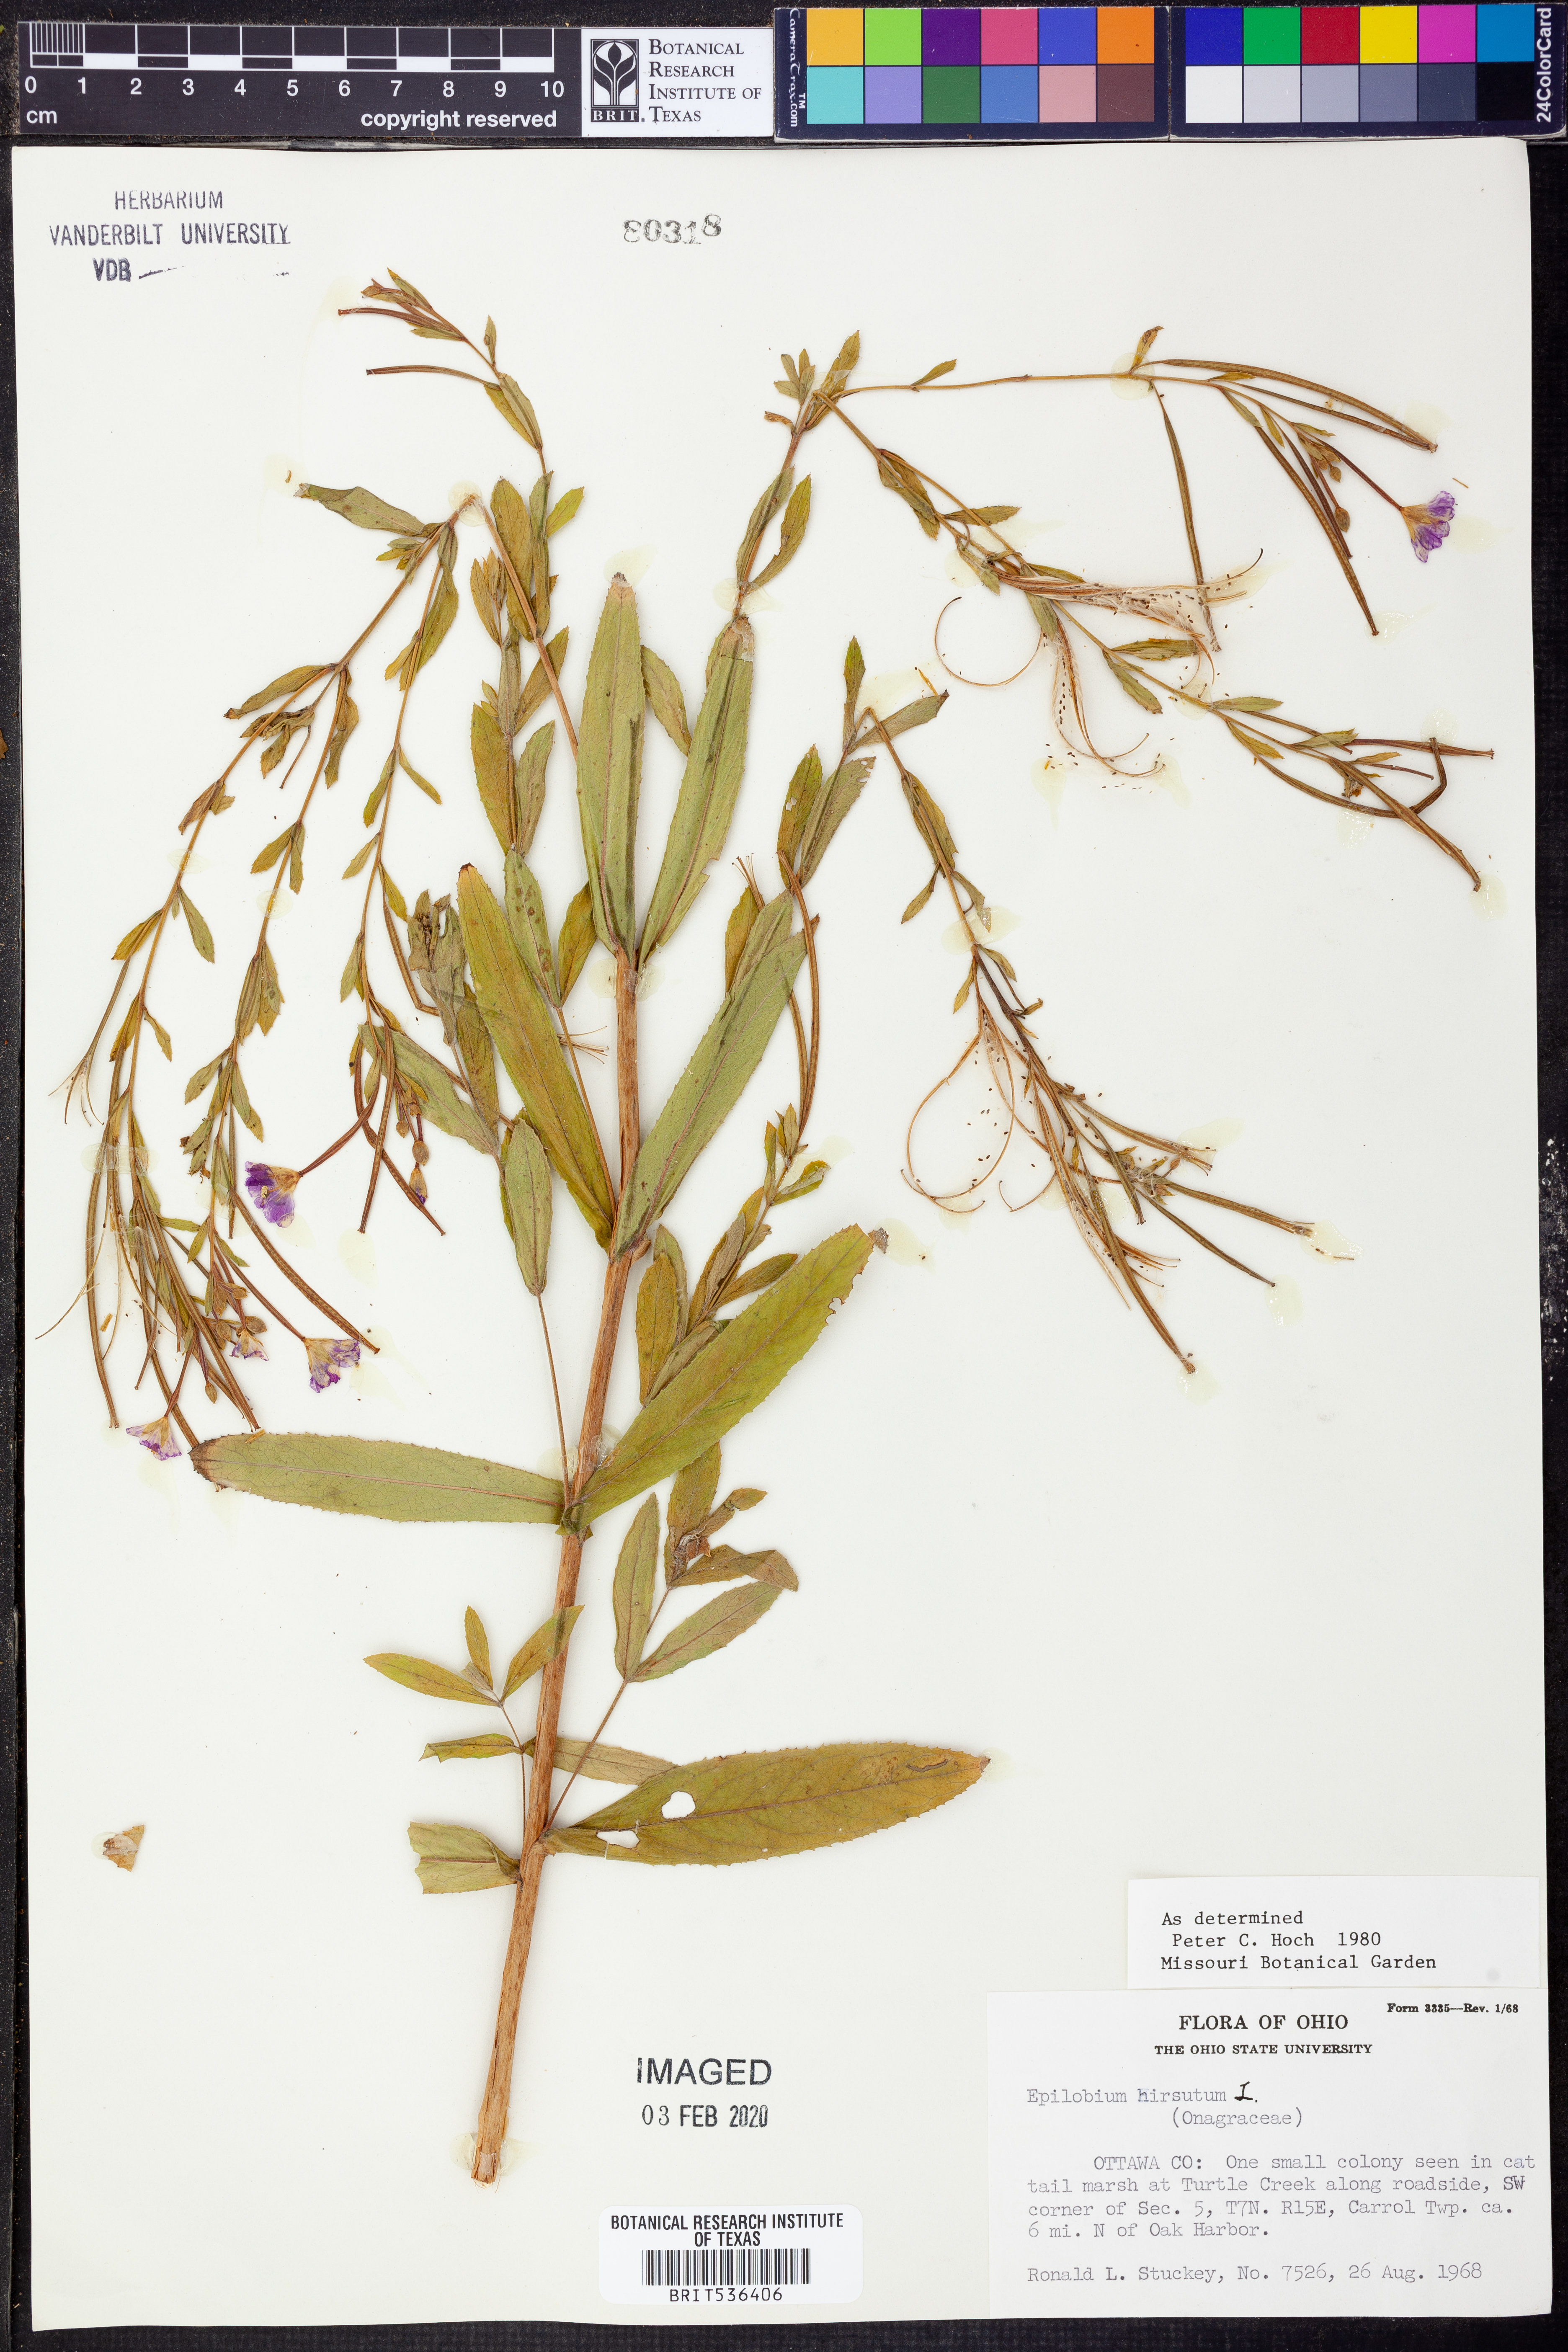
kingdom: Plantae
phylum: Tracheophyta
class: Magnoliopsida
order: Myrtales
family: Onagraceae
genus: Epilobium
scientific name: Epilobium hirsutum
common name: Great willowherb
